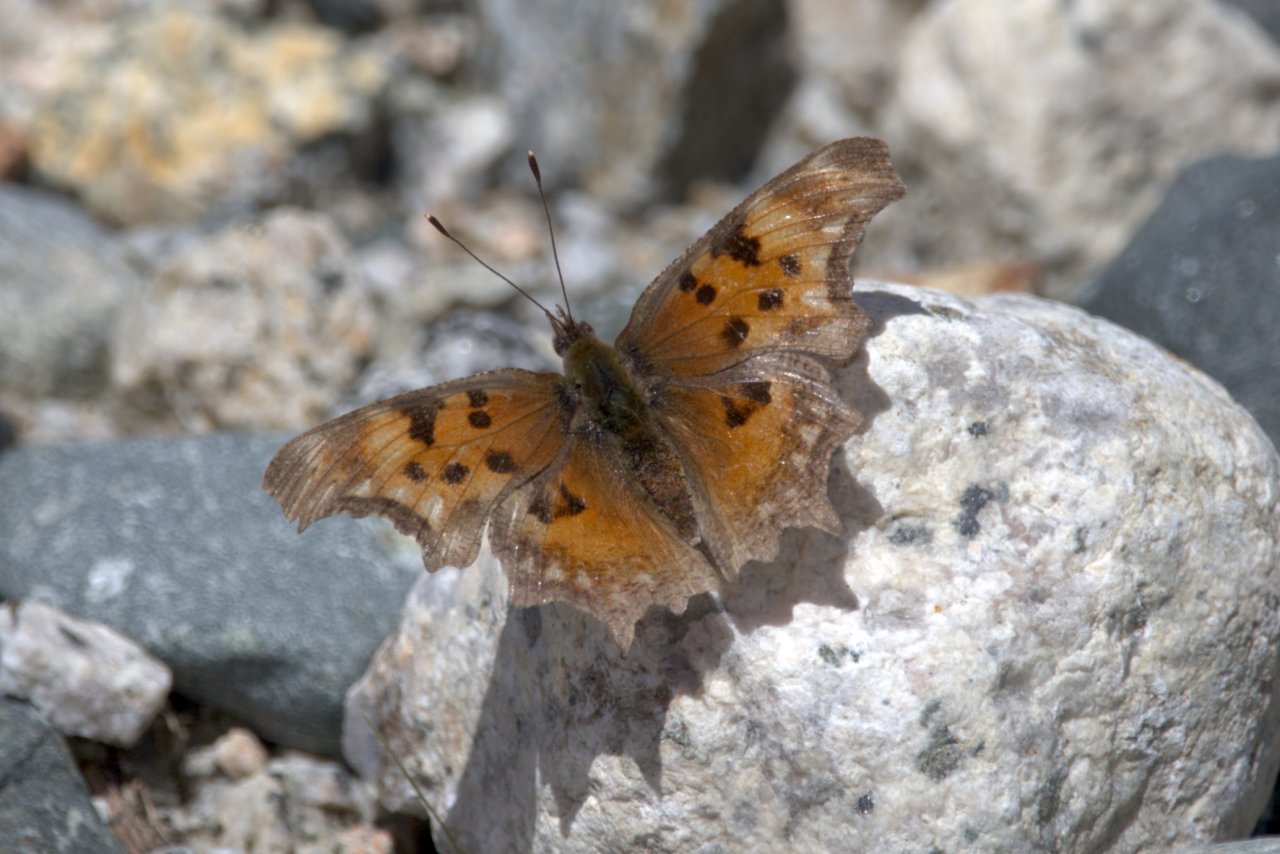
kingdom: Animalia
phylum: Arthropoda
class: Insecta
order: Lepidoptera
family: Nymphalidae
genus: Polygonia
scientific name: Polygonia gracilis
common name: Hoary Comma
